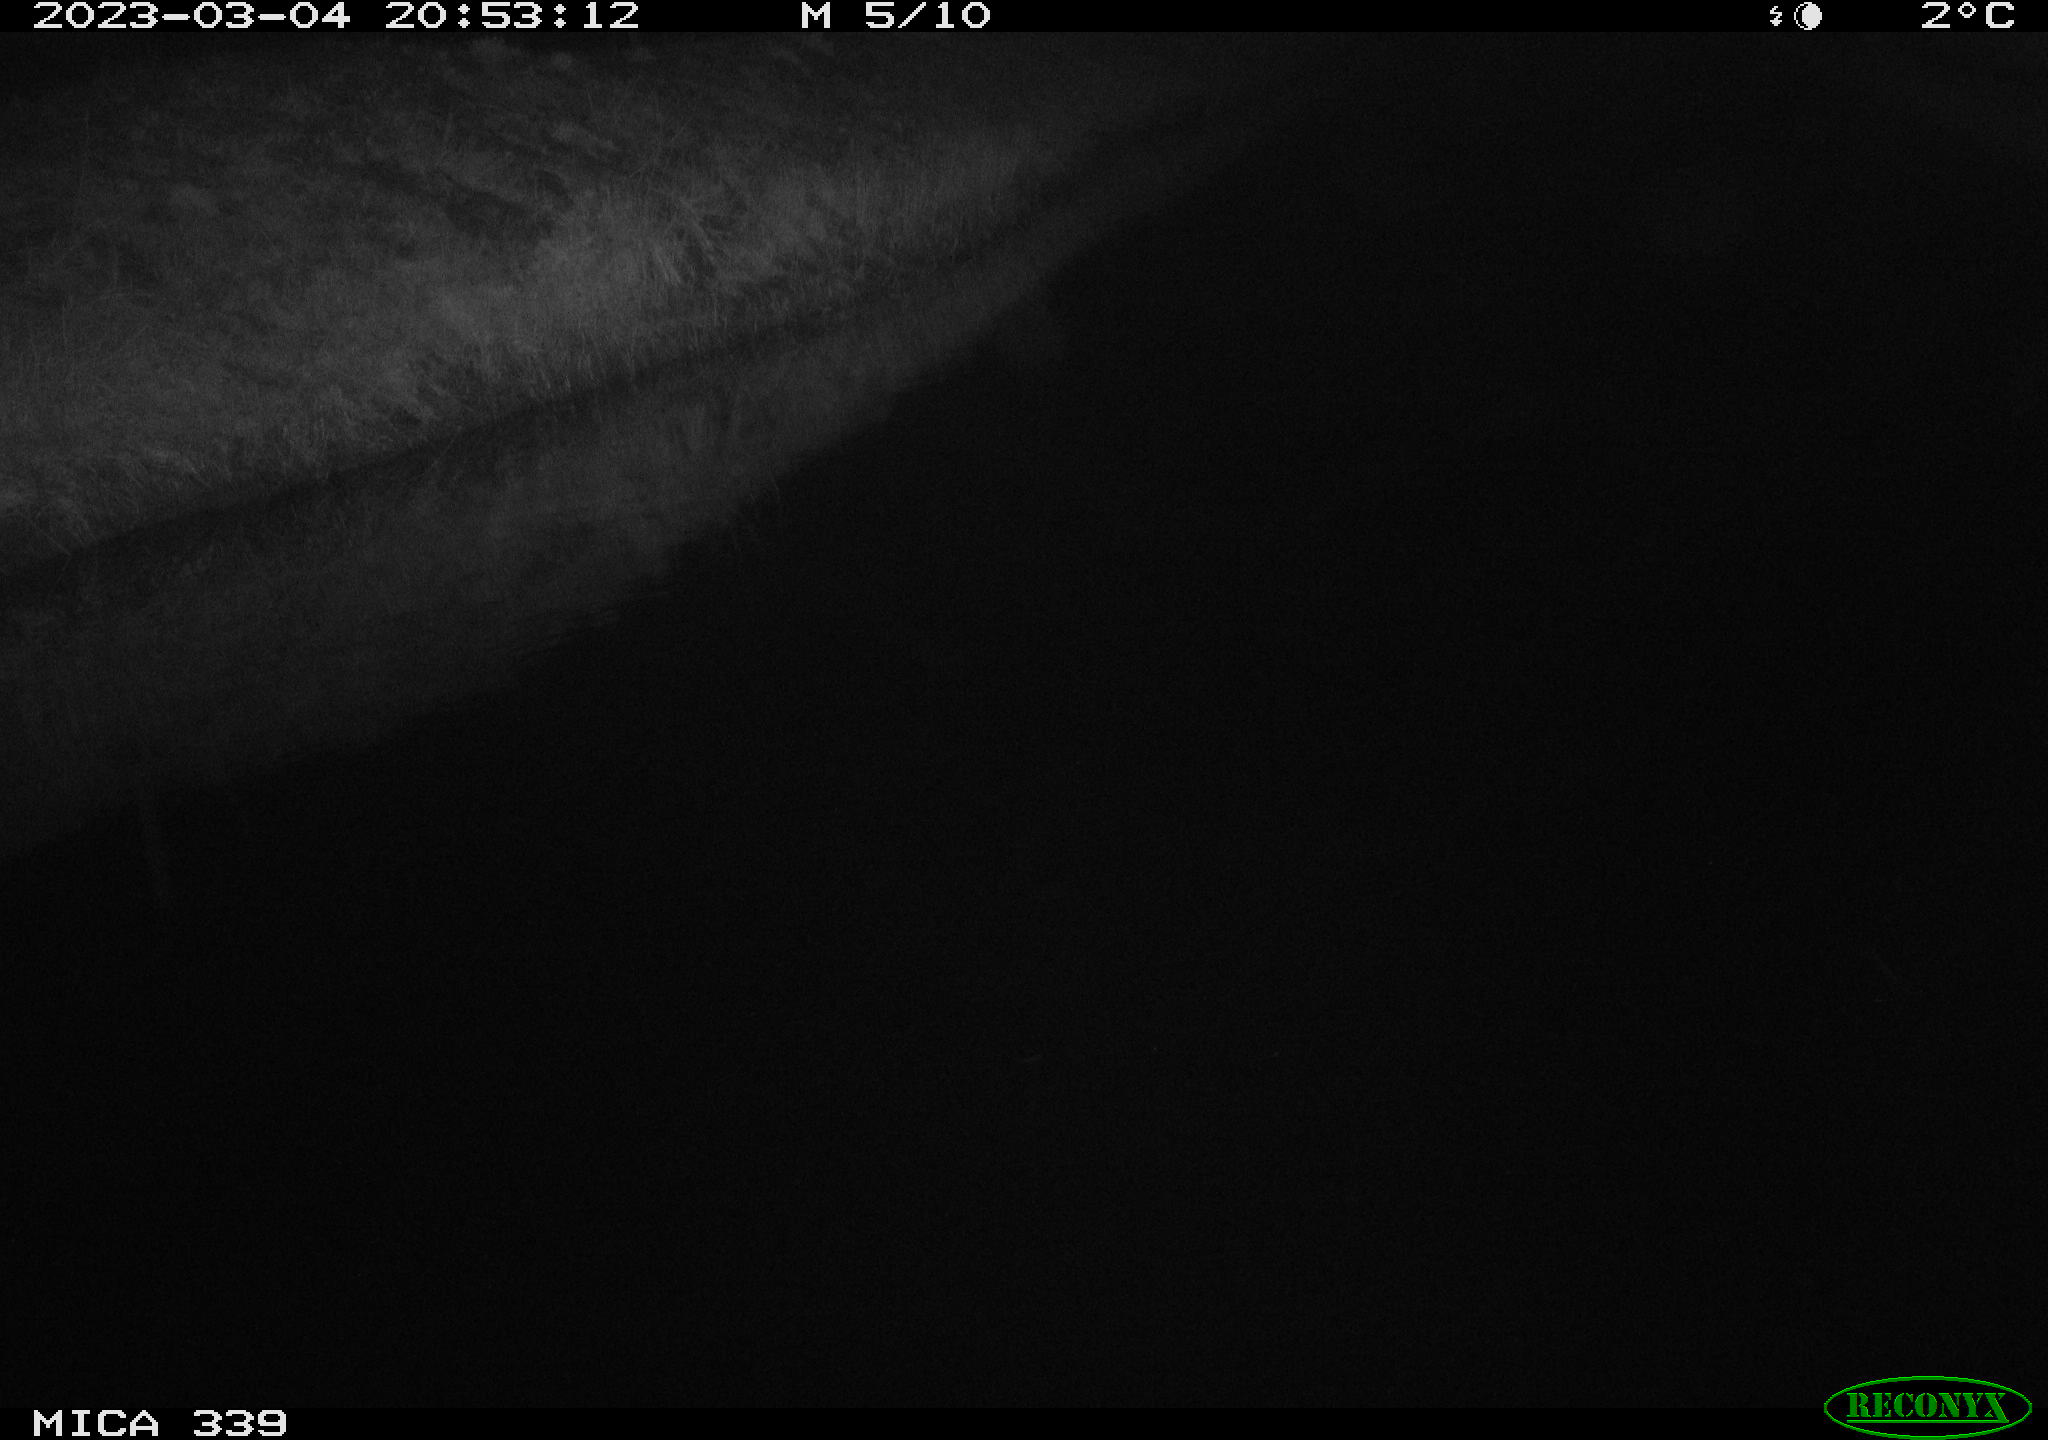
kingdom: Animalia
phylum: Chordata
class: Aves
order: Pelecaniformes
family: Ardeidae
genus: Ardea
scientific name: Ardea cinerea
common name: Grey heron
